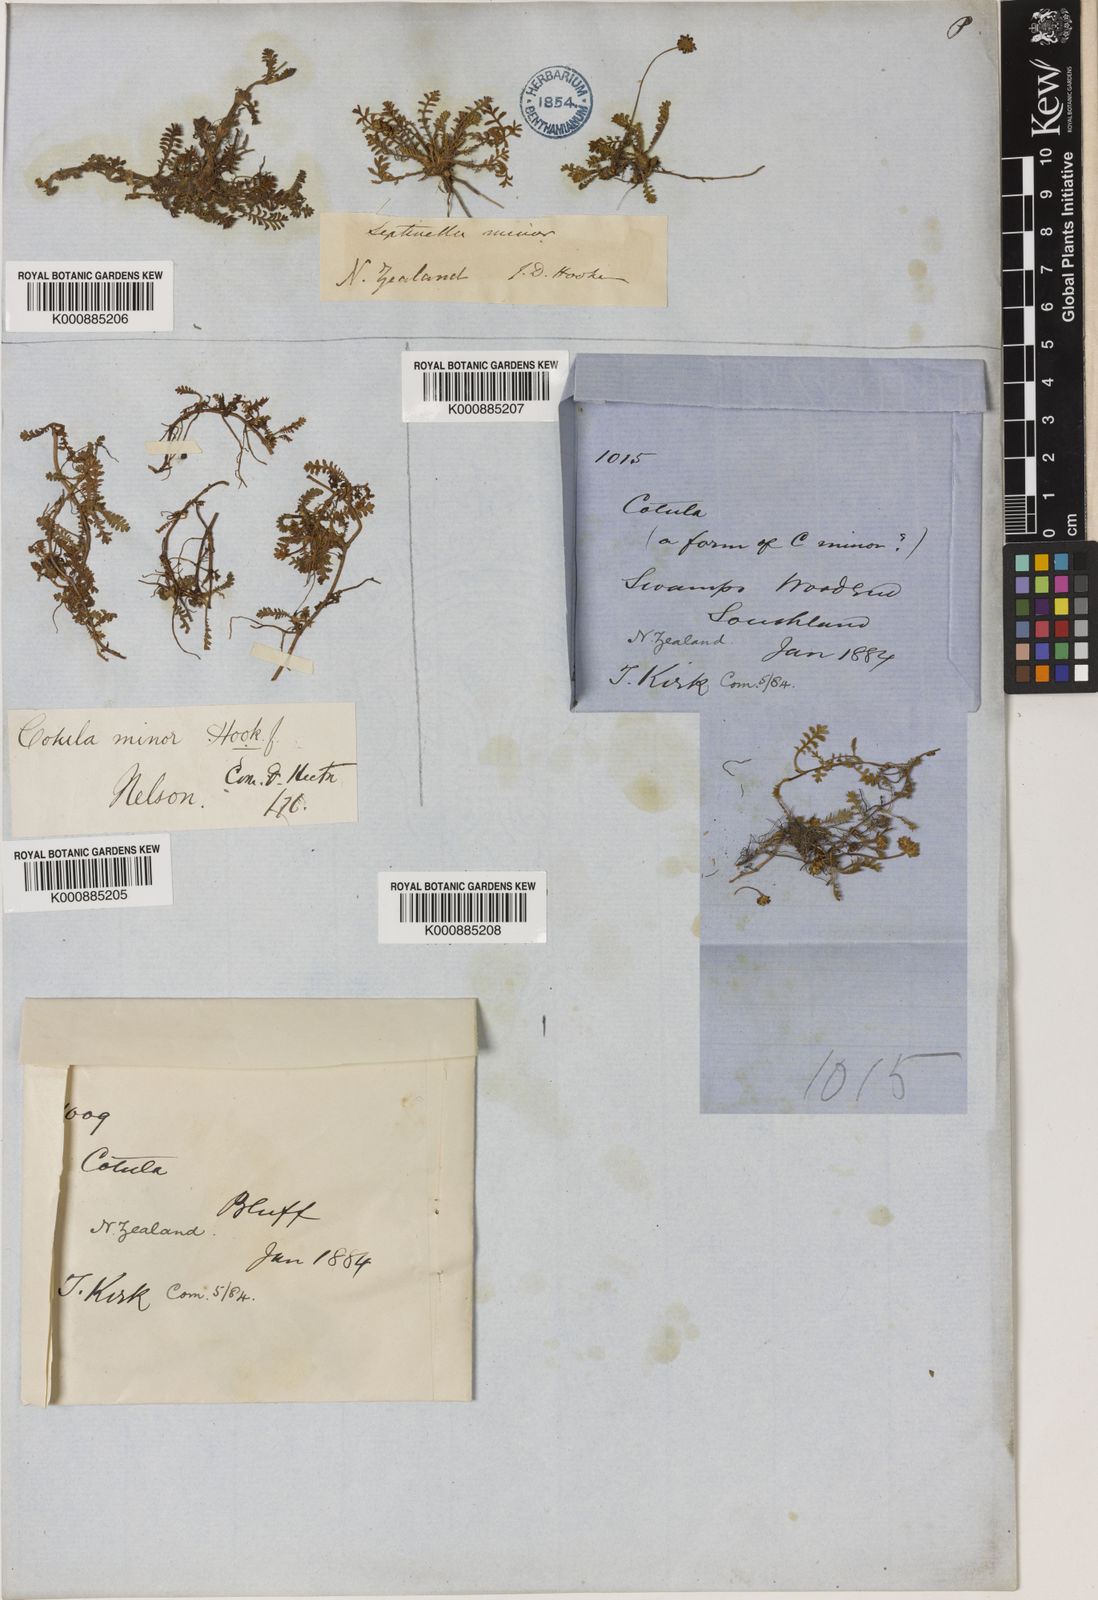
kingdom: Plantae
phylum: Tracheophyta
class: Magnoliopsida
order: Asterales
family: Asteraceae
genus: Leptinella
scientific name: Leptinella minor
